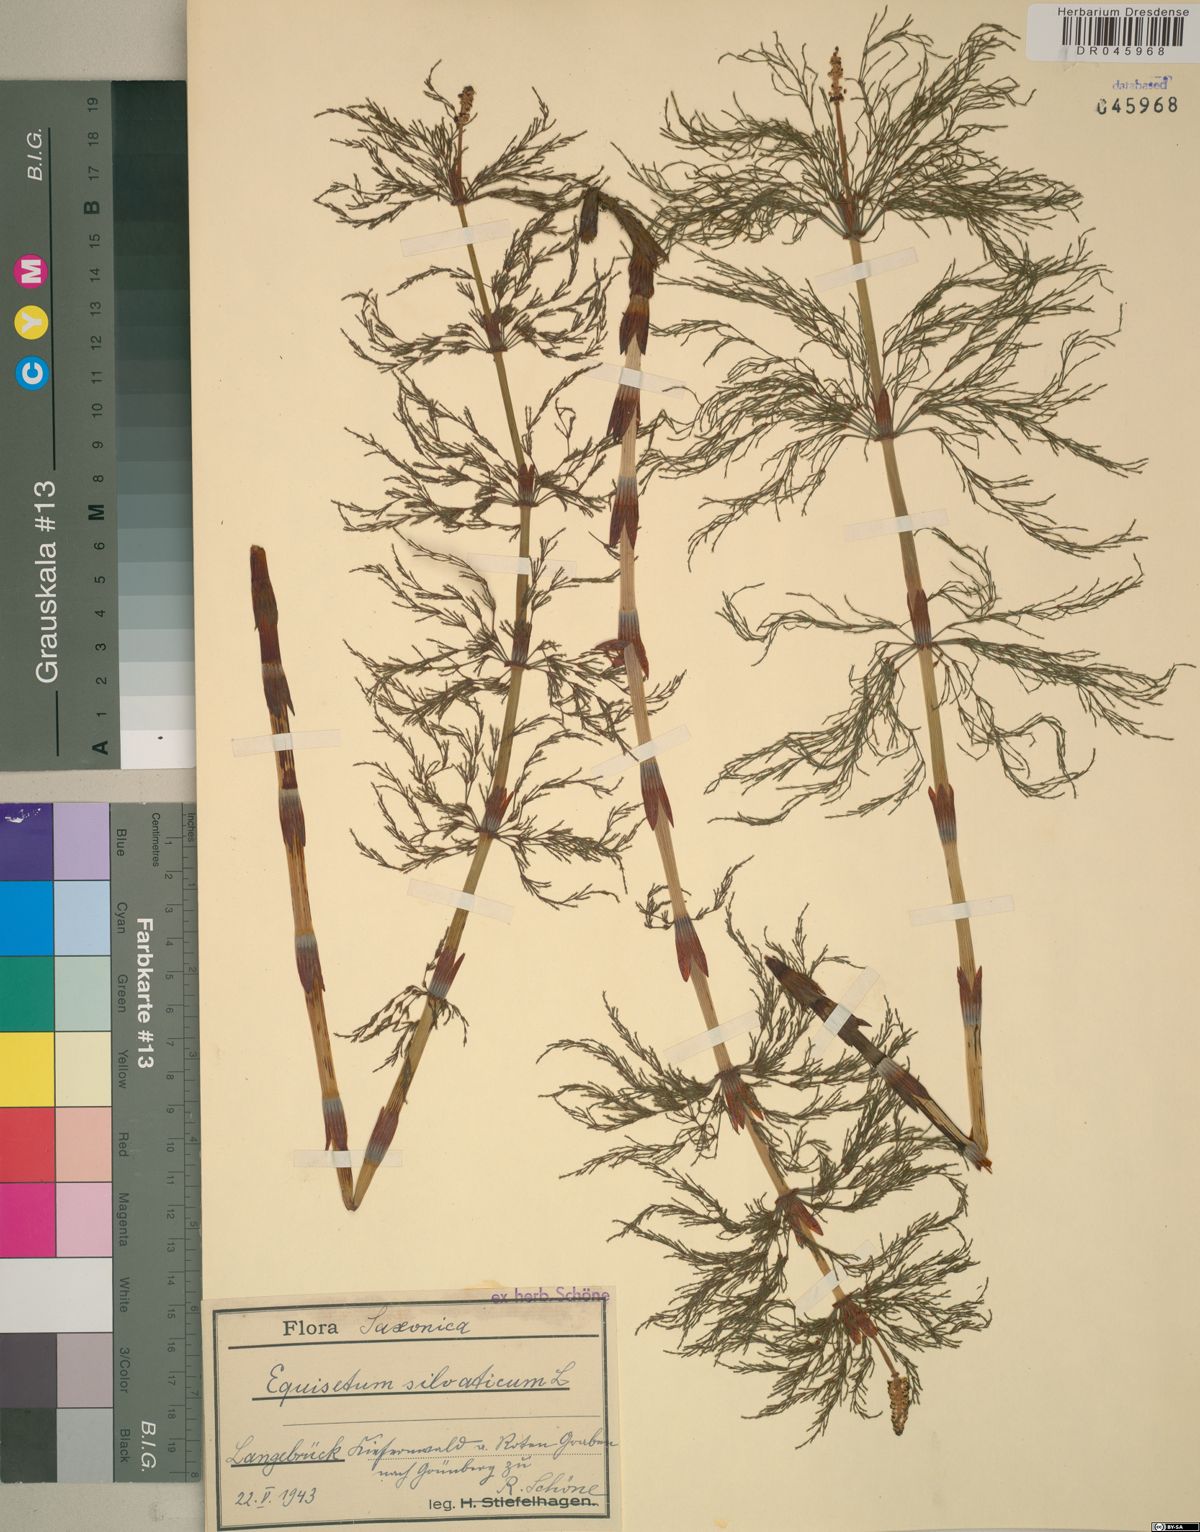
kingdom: Plantae
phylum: Tracheophyta
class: Polypodiopsida
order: Equisetales
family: Equisetaceae
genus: Equisetum
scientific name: Equisetum sylvaticum
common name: Wood horsetail
